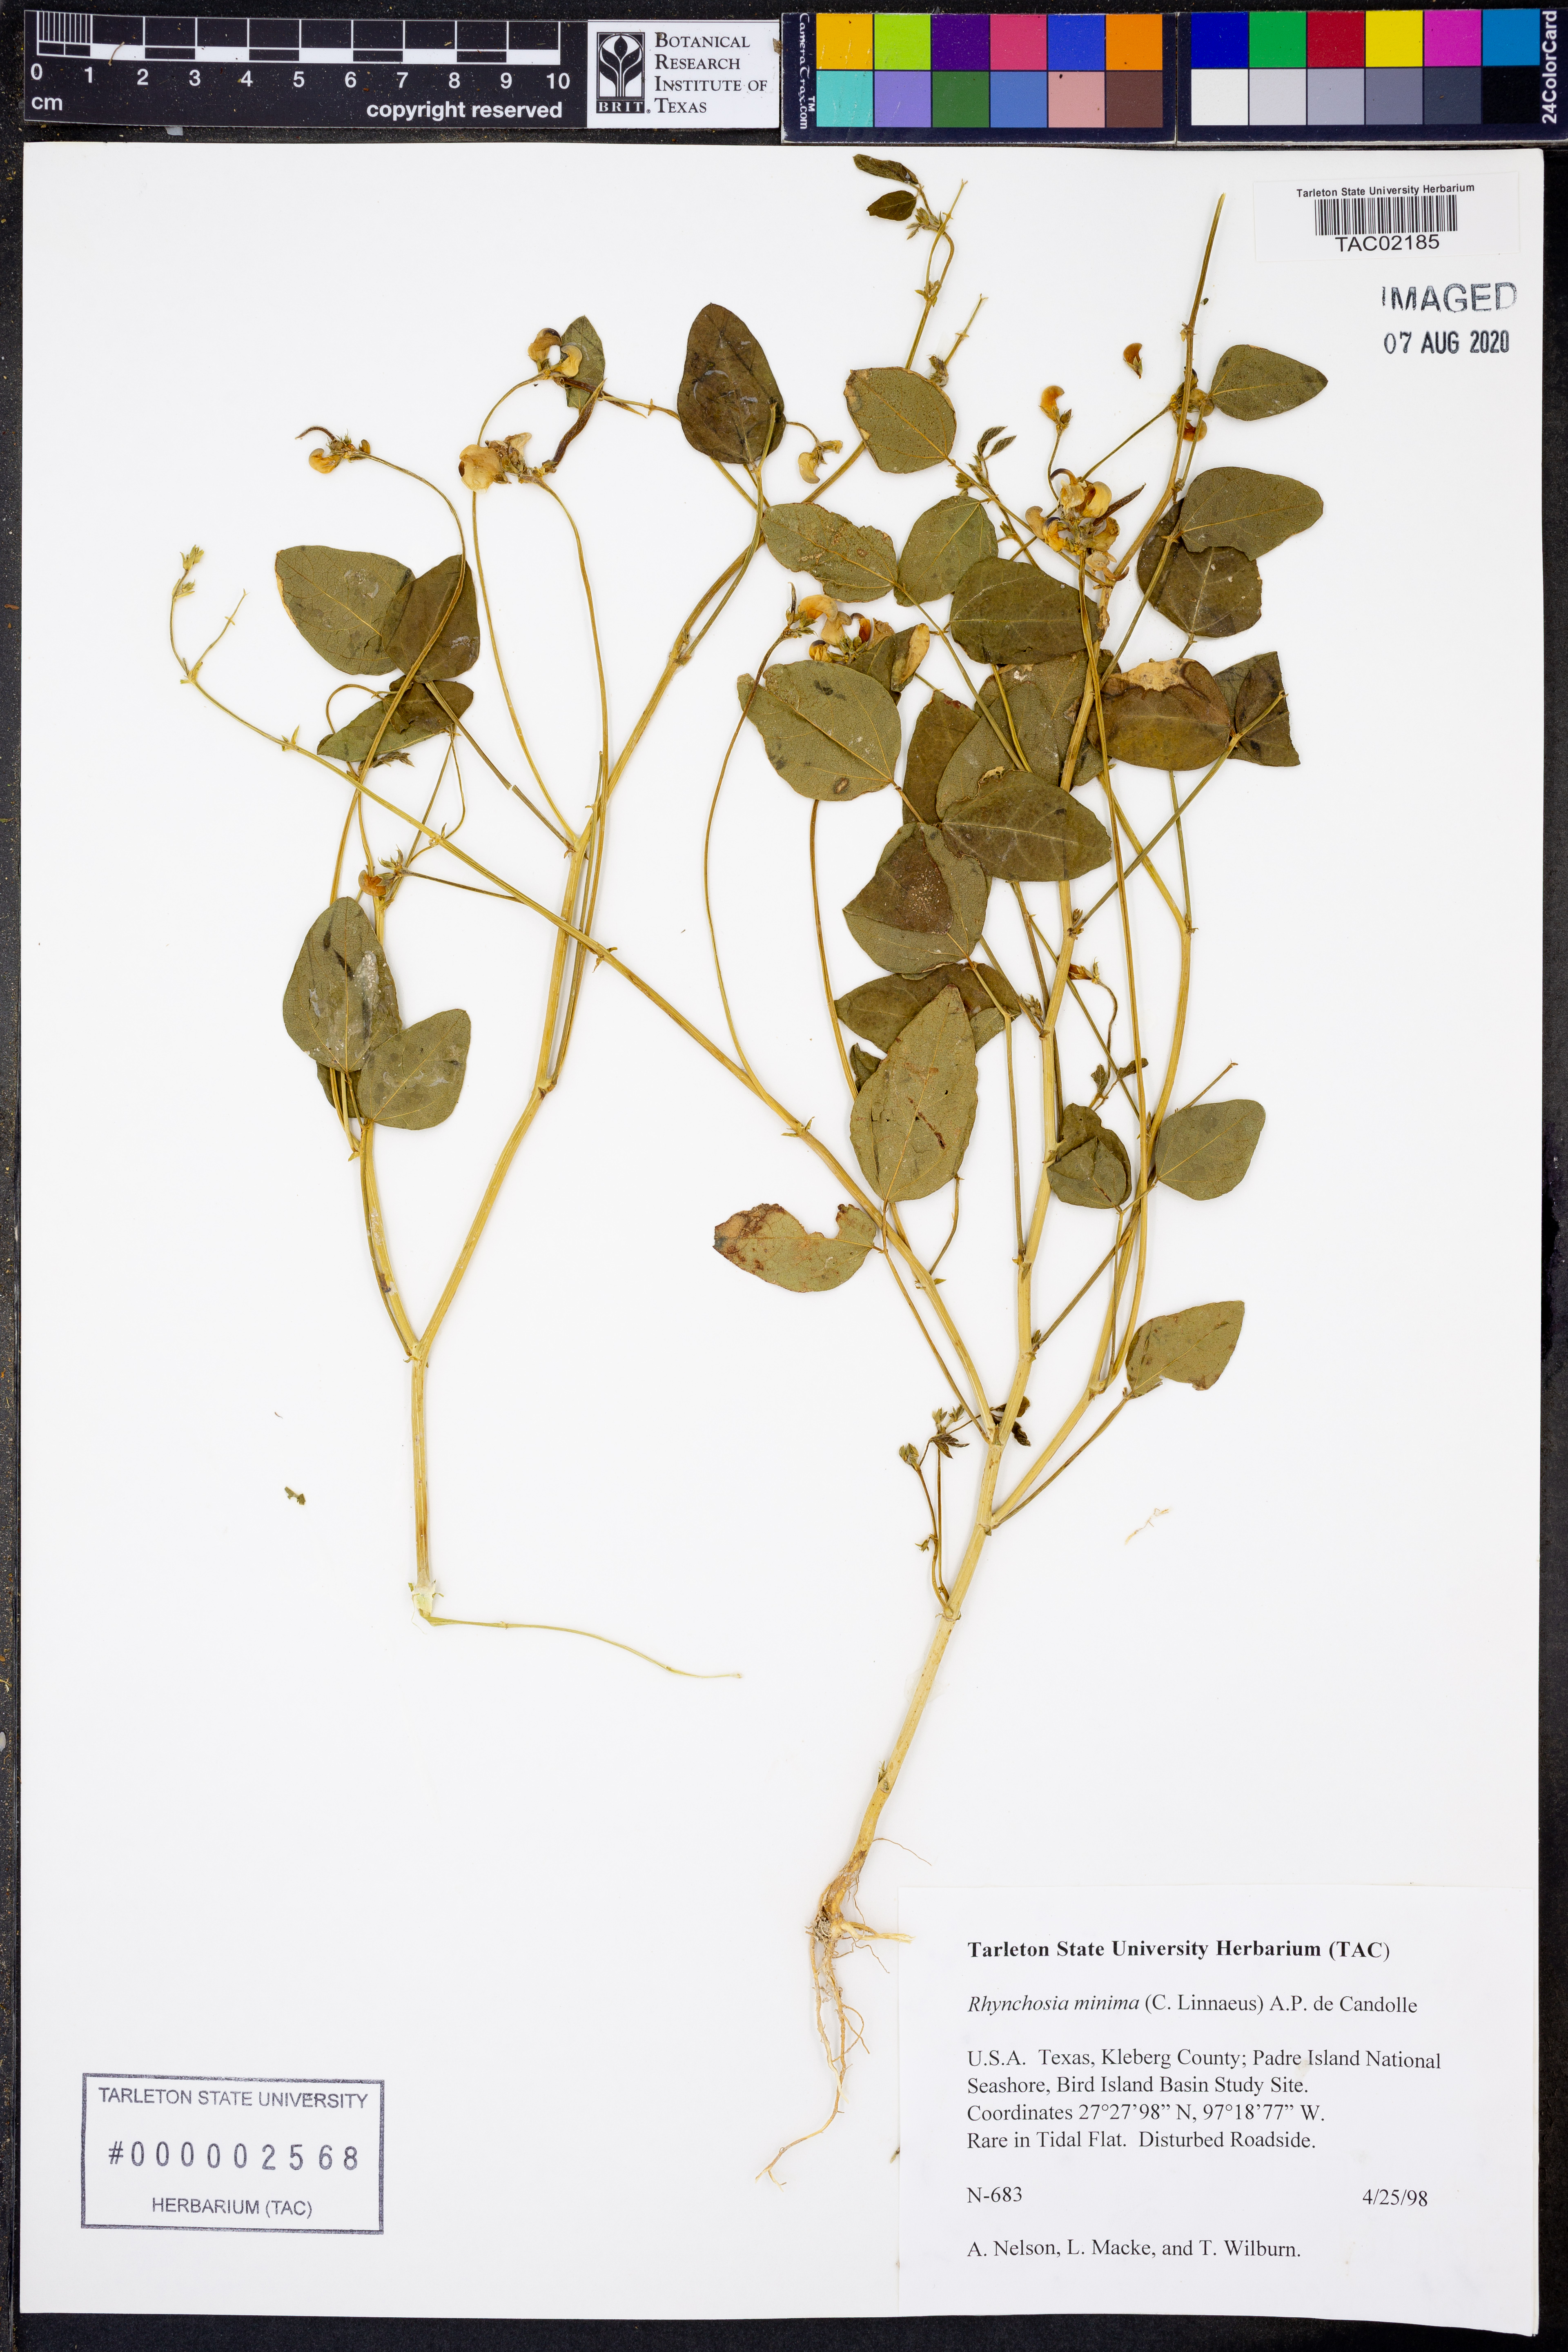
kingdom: Plantae
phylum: Tracheophyta
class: Magnoliopsida
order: Fabales
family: Fabaceae
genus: Rhynchosia
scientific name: Rhynchosia minima
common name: Least snoutbean
